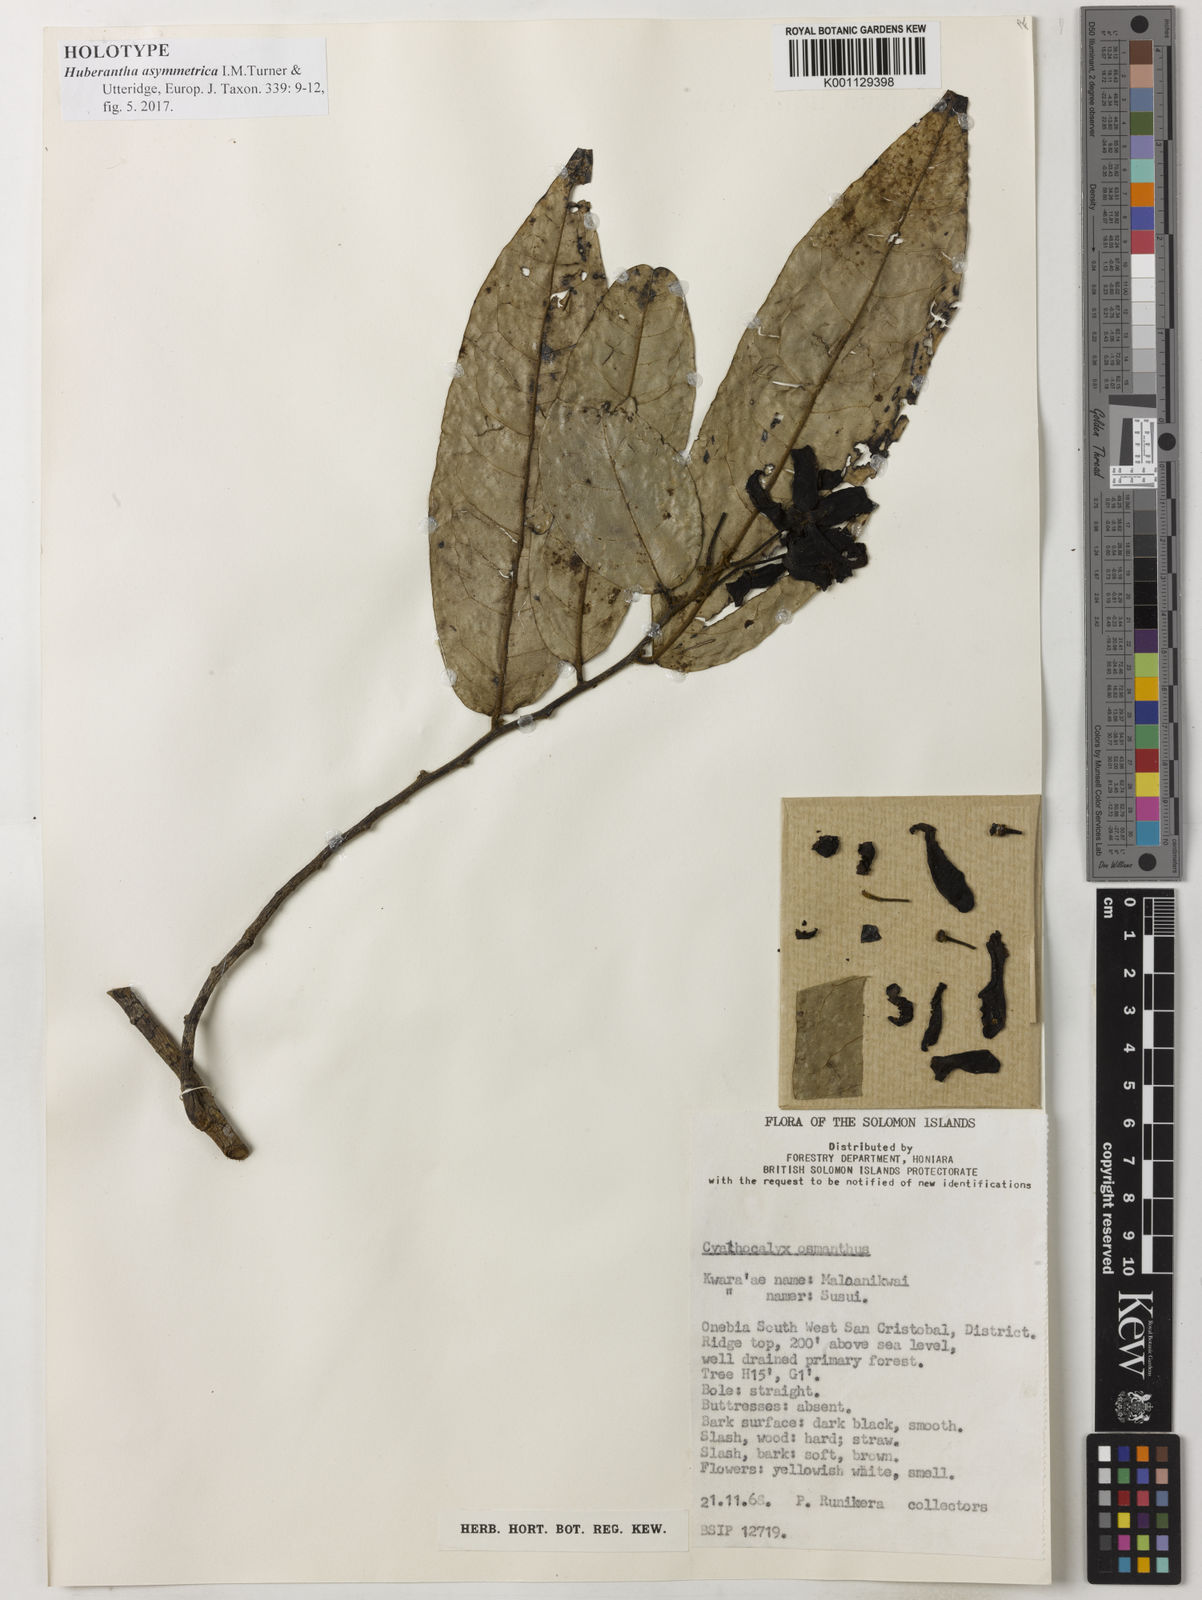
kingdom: Plantae
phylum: Tracheophyta
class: Magnoliopsida
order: Magnoliales
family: Annonaceae
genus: Huberantha
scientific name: Huberantha asymmetrica
